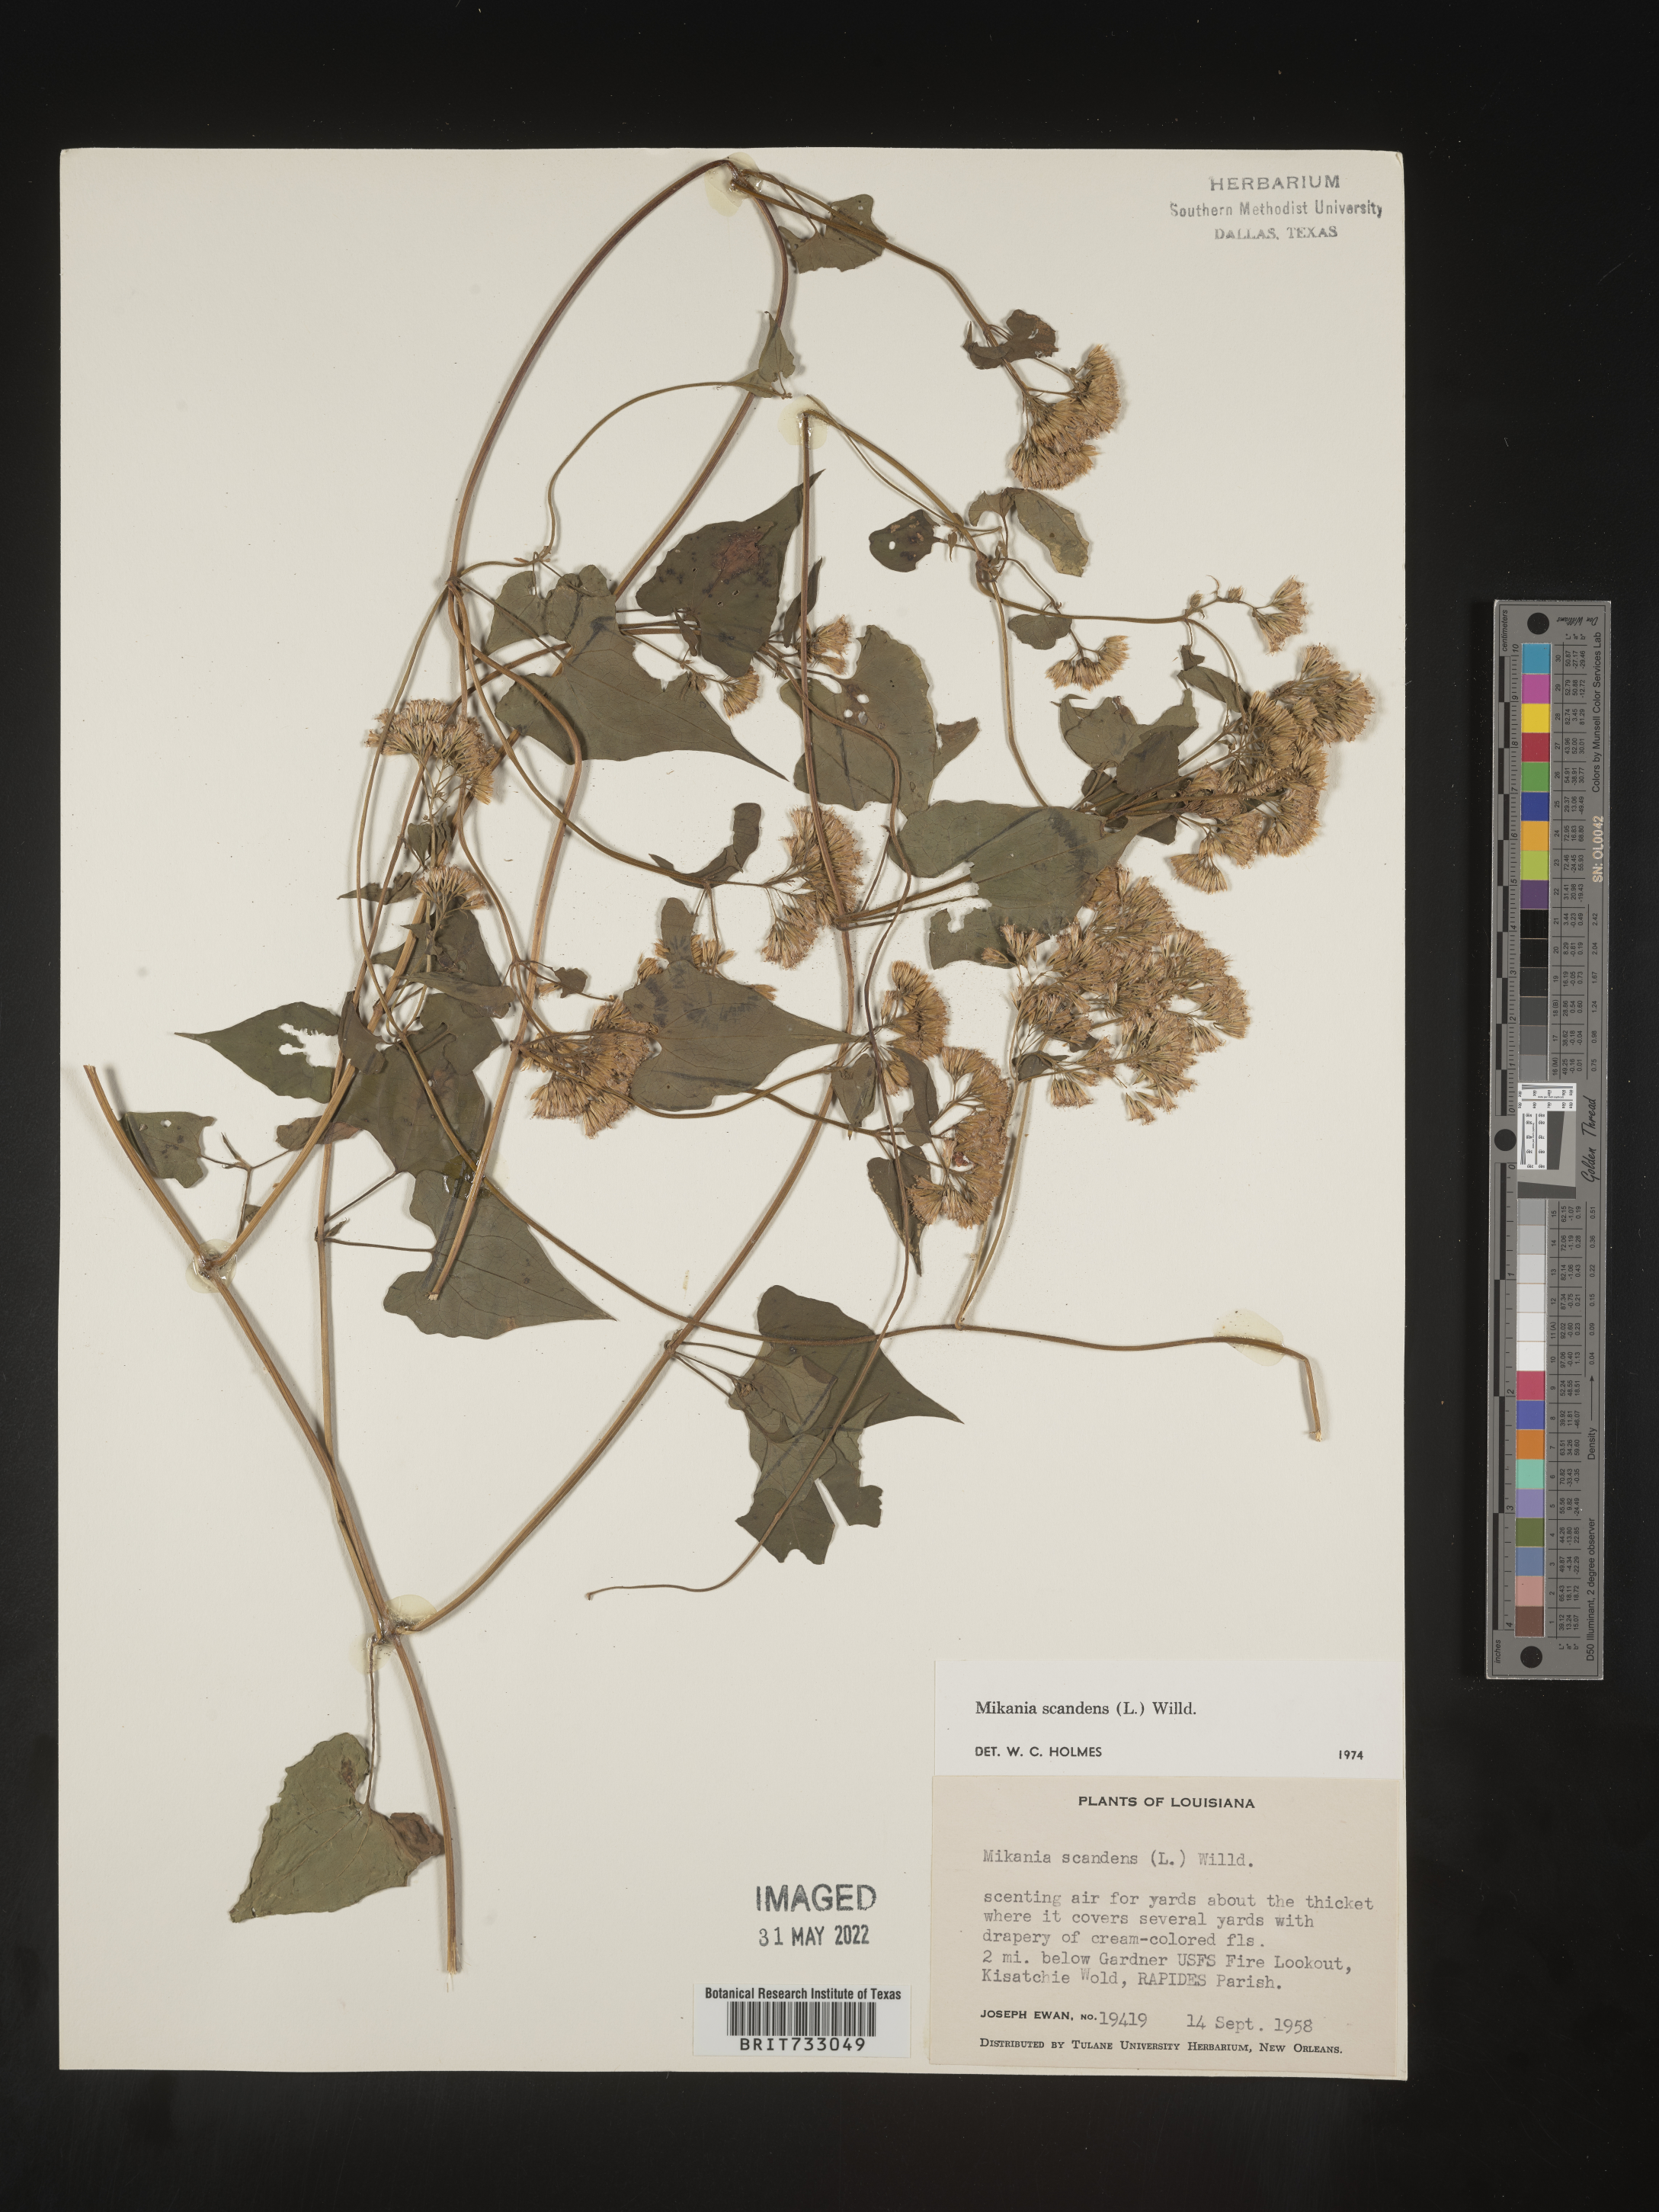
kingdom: Plantae
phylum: Tracheophyta
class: Magnoliopsida
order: Asterales
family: Asteraceae
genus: Mikania
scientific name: Mikania scandens
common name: Climbing hempvine
